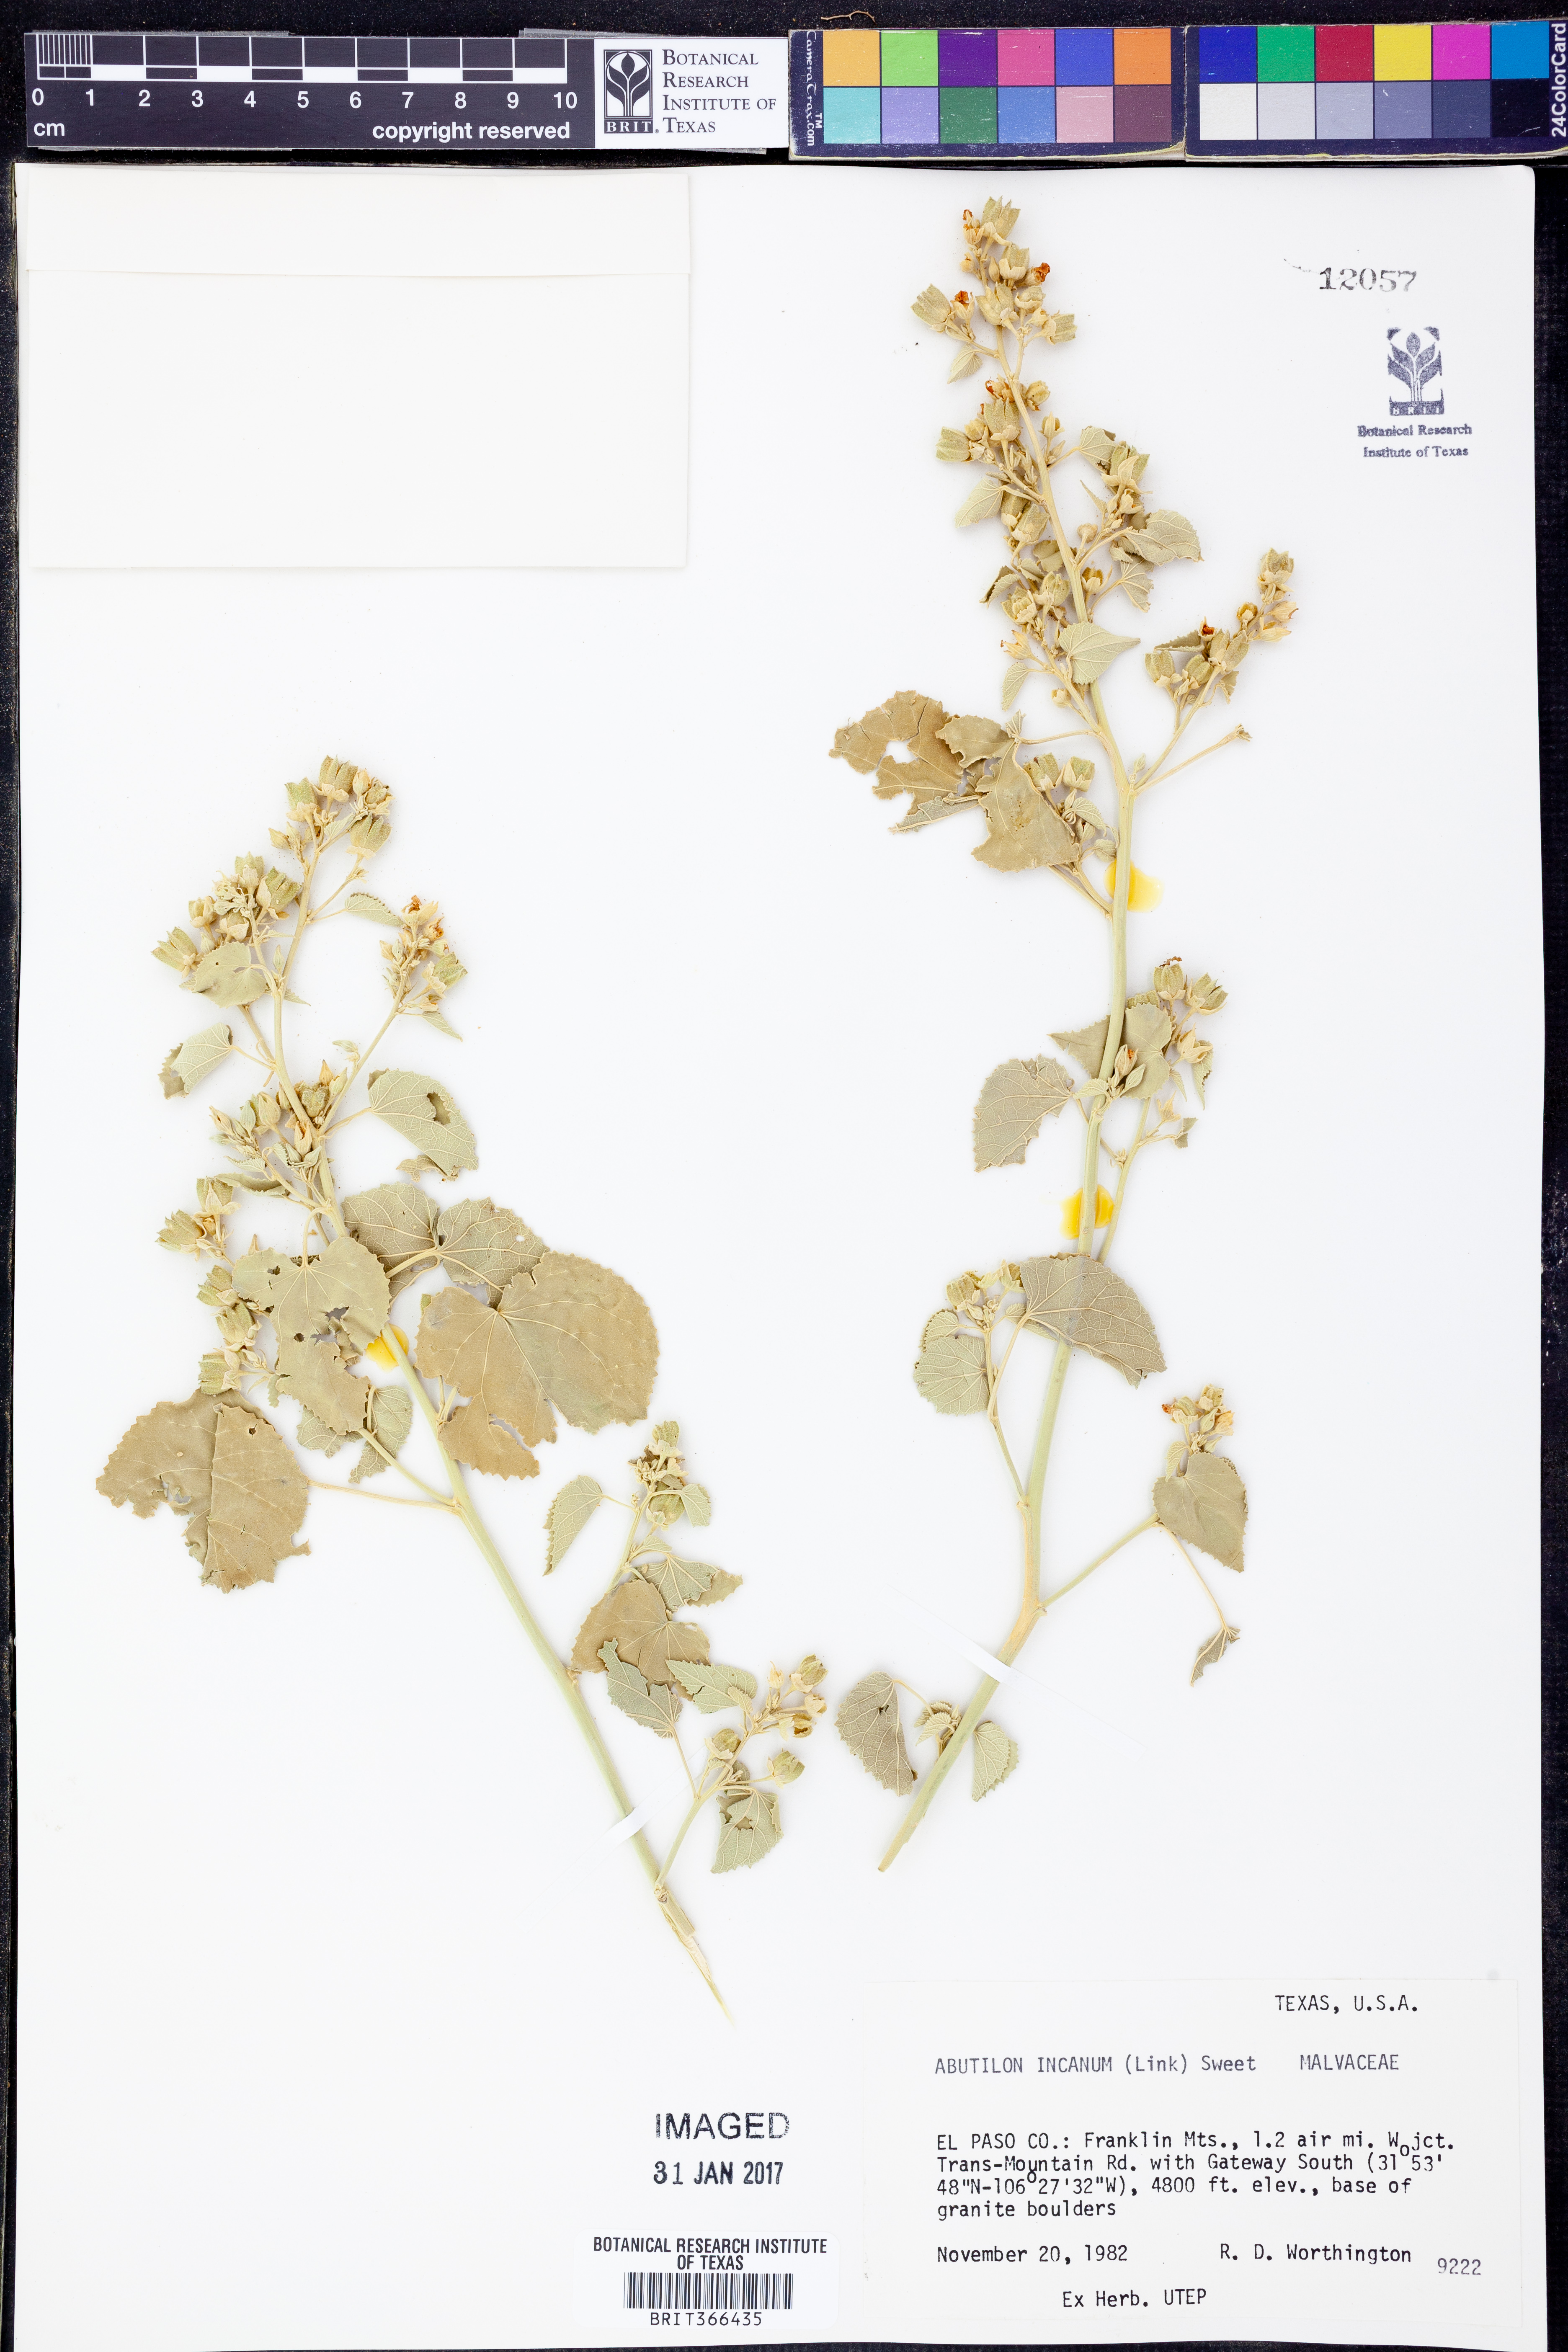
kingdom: Plantae
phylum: Tracheophyta
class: Magnoliopsida
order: Malvales
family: Malvaceae
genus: Abutilon
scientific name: Abutilon incanum
